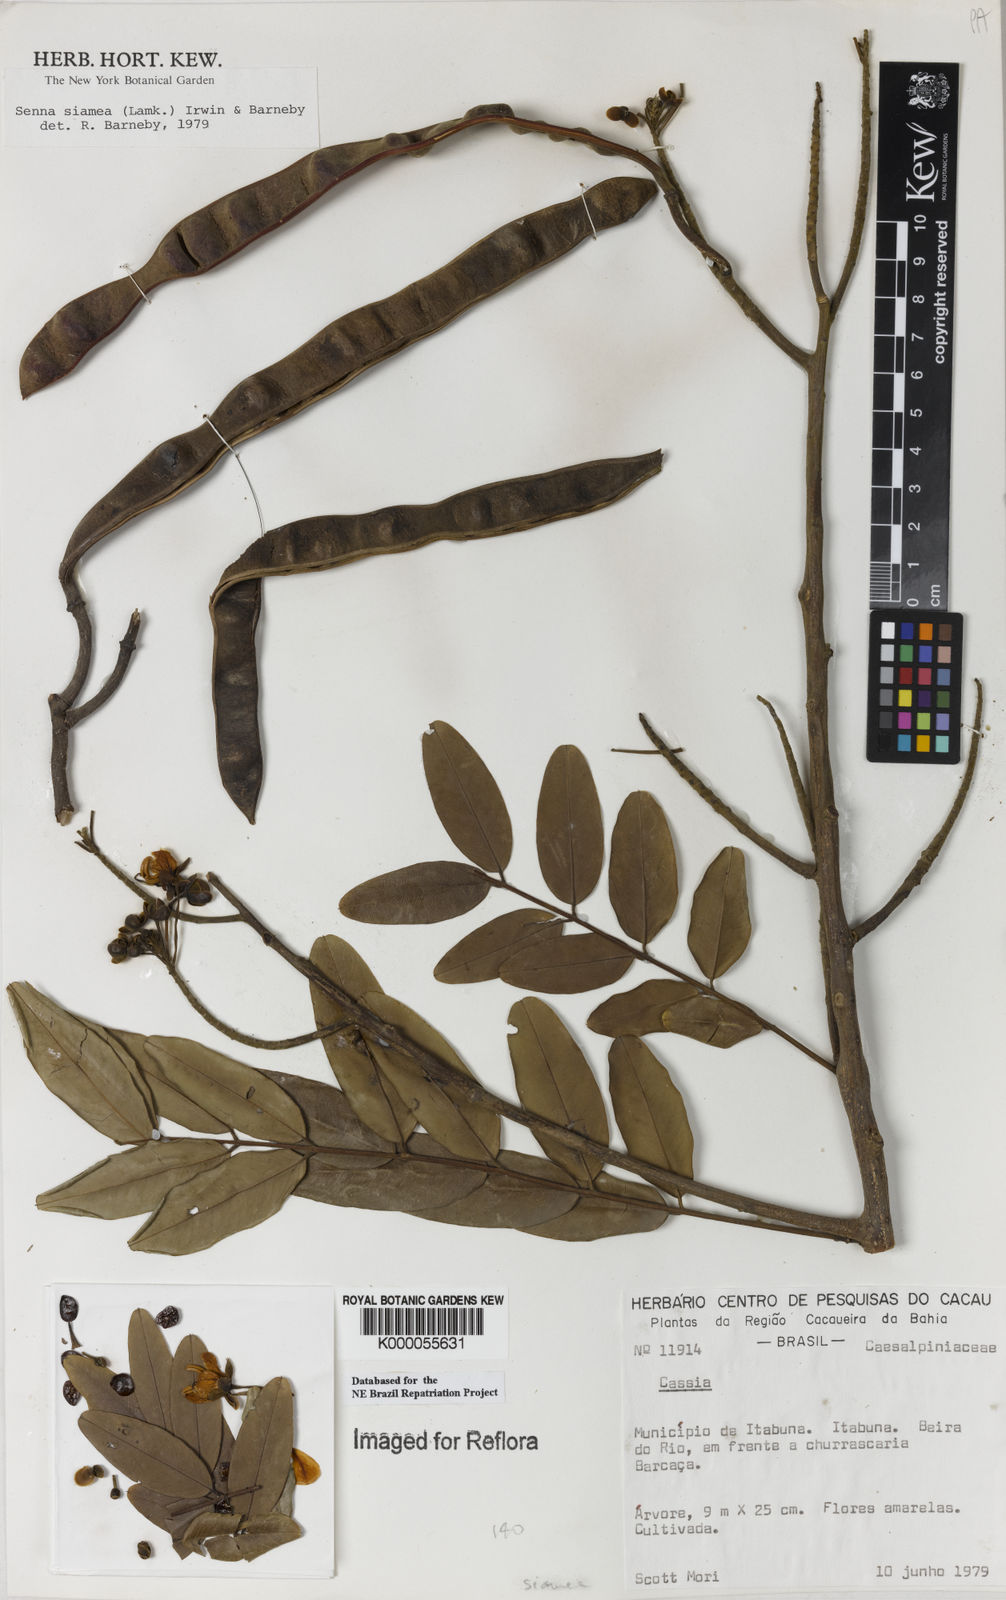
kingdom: Plantae
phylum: Tracheophyta
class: Magnoliopsida
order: Fabales
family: Fabaceae
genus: Senna
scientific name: Senna siamea
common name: Siamese cassia
